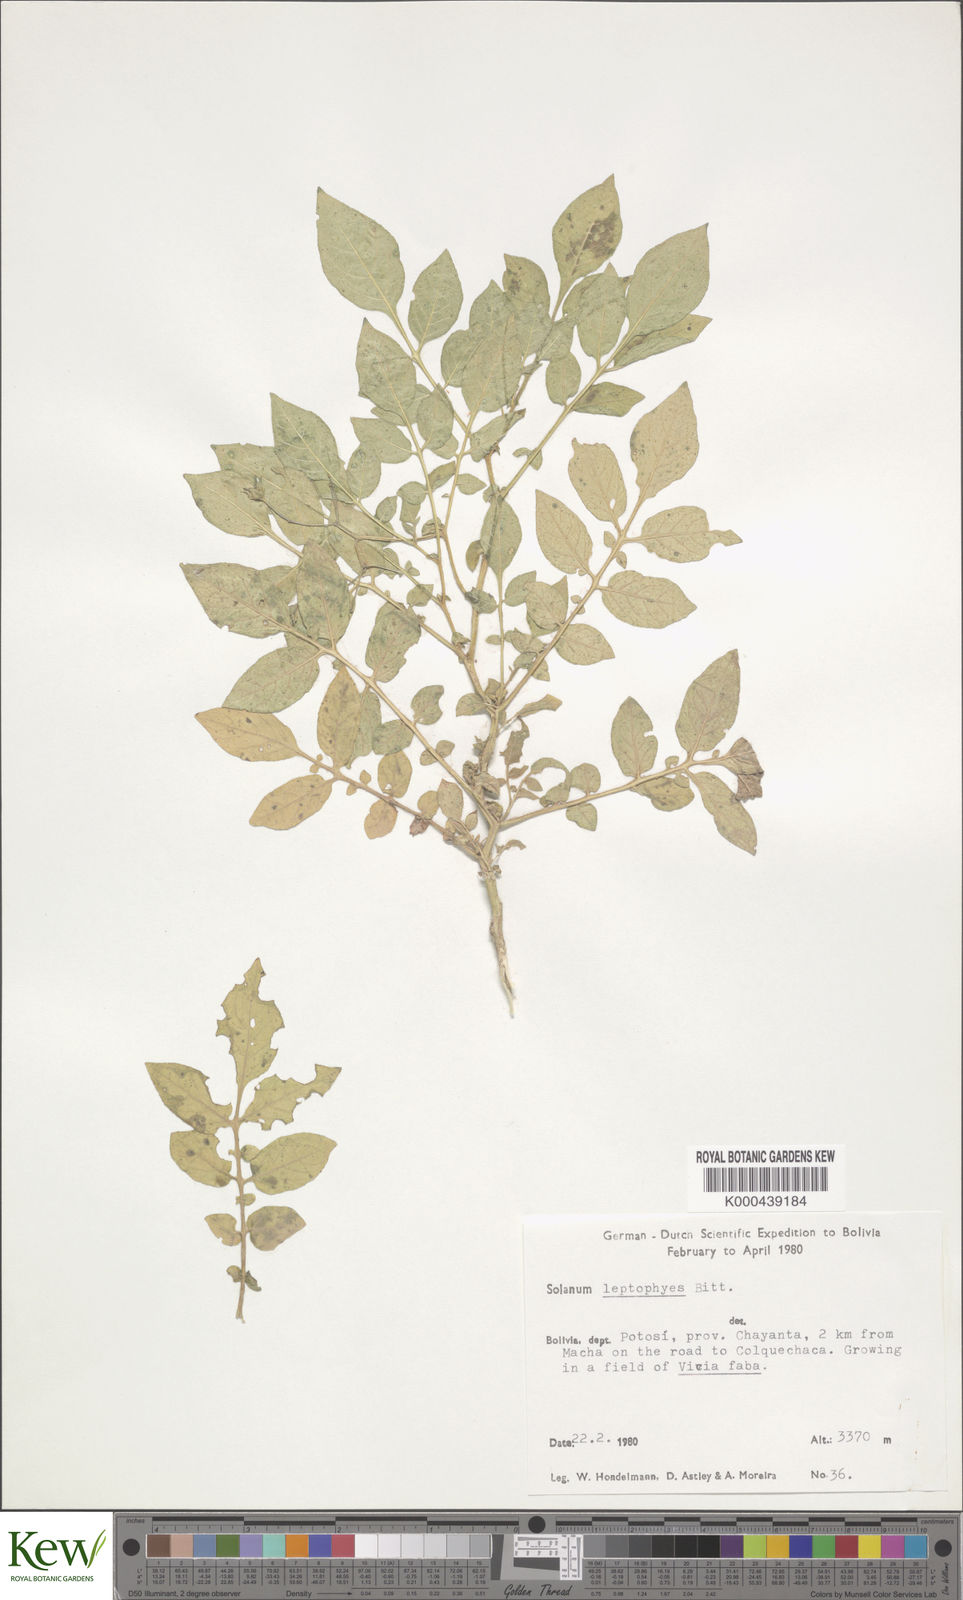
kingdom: Plantae
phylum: Tracheophyta
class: Magnoliopsida
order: Solanales
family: Solanaceae
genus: Solanum
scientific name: Solanum brevicaule
